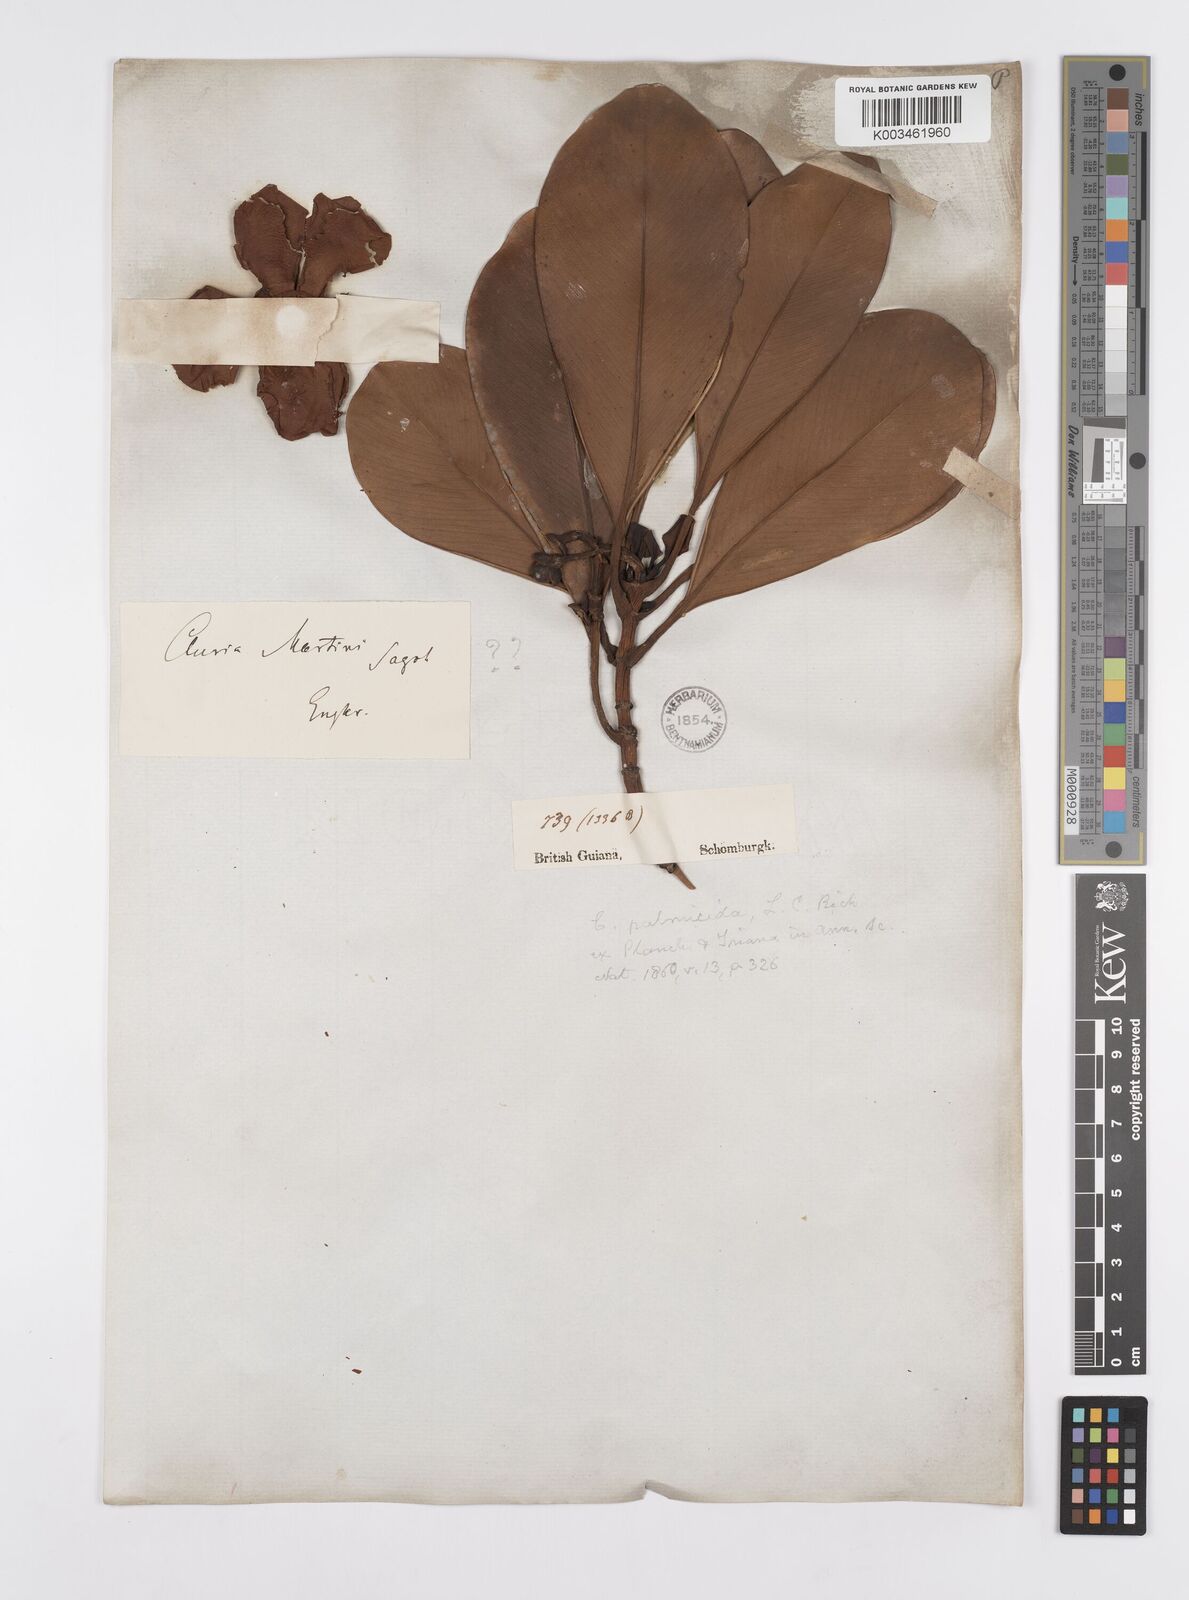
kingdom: Plantae
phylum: Tracheophyta
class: Magnoliopsida
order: Malpighiales
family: Clusiaceae
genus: Clusia
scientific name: Clusia palmicida
